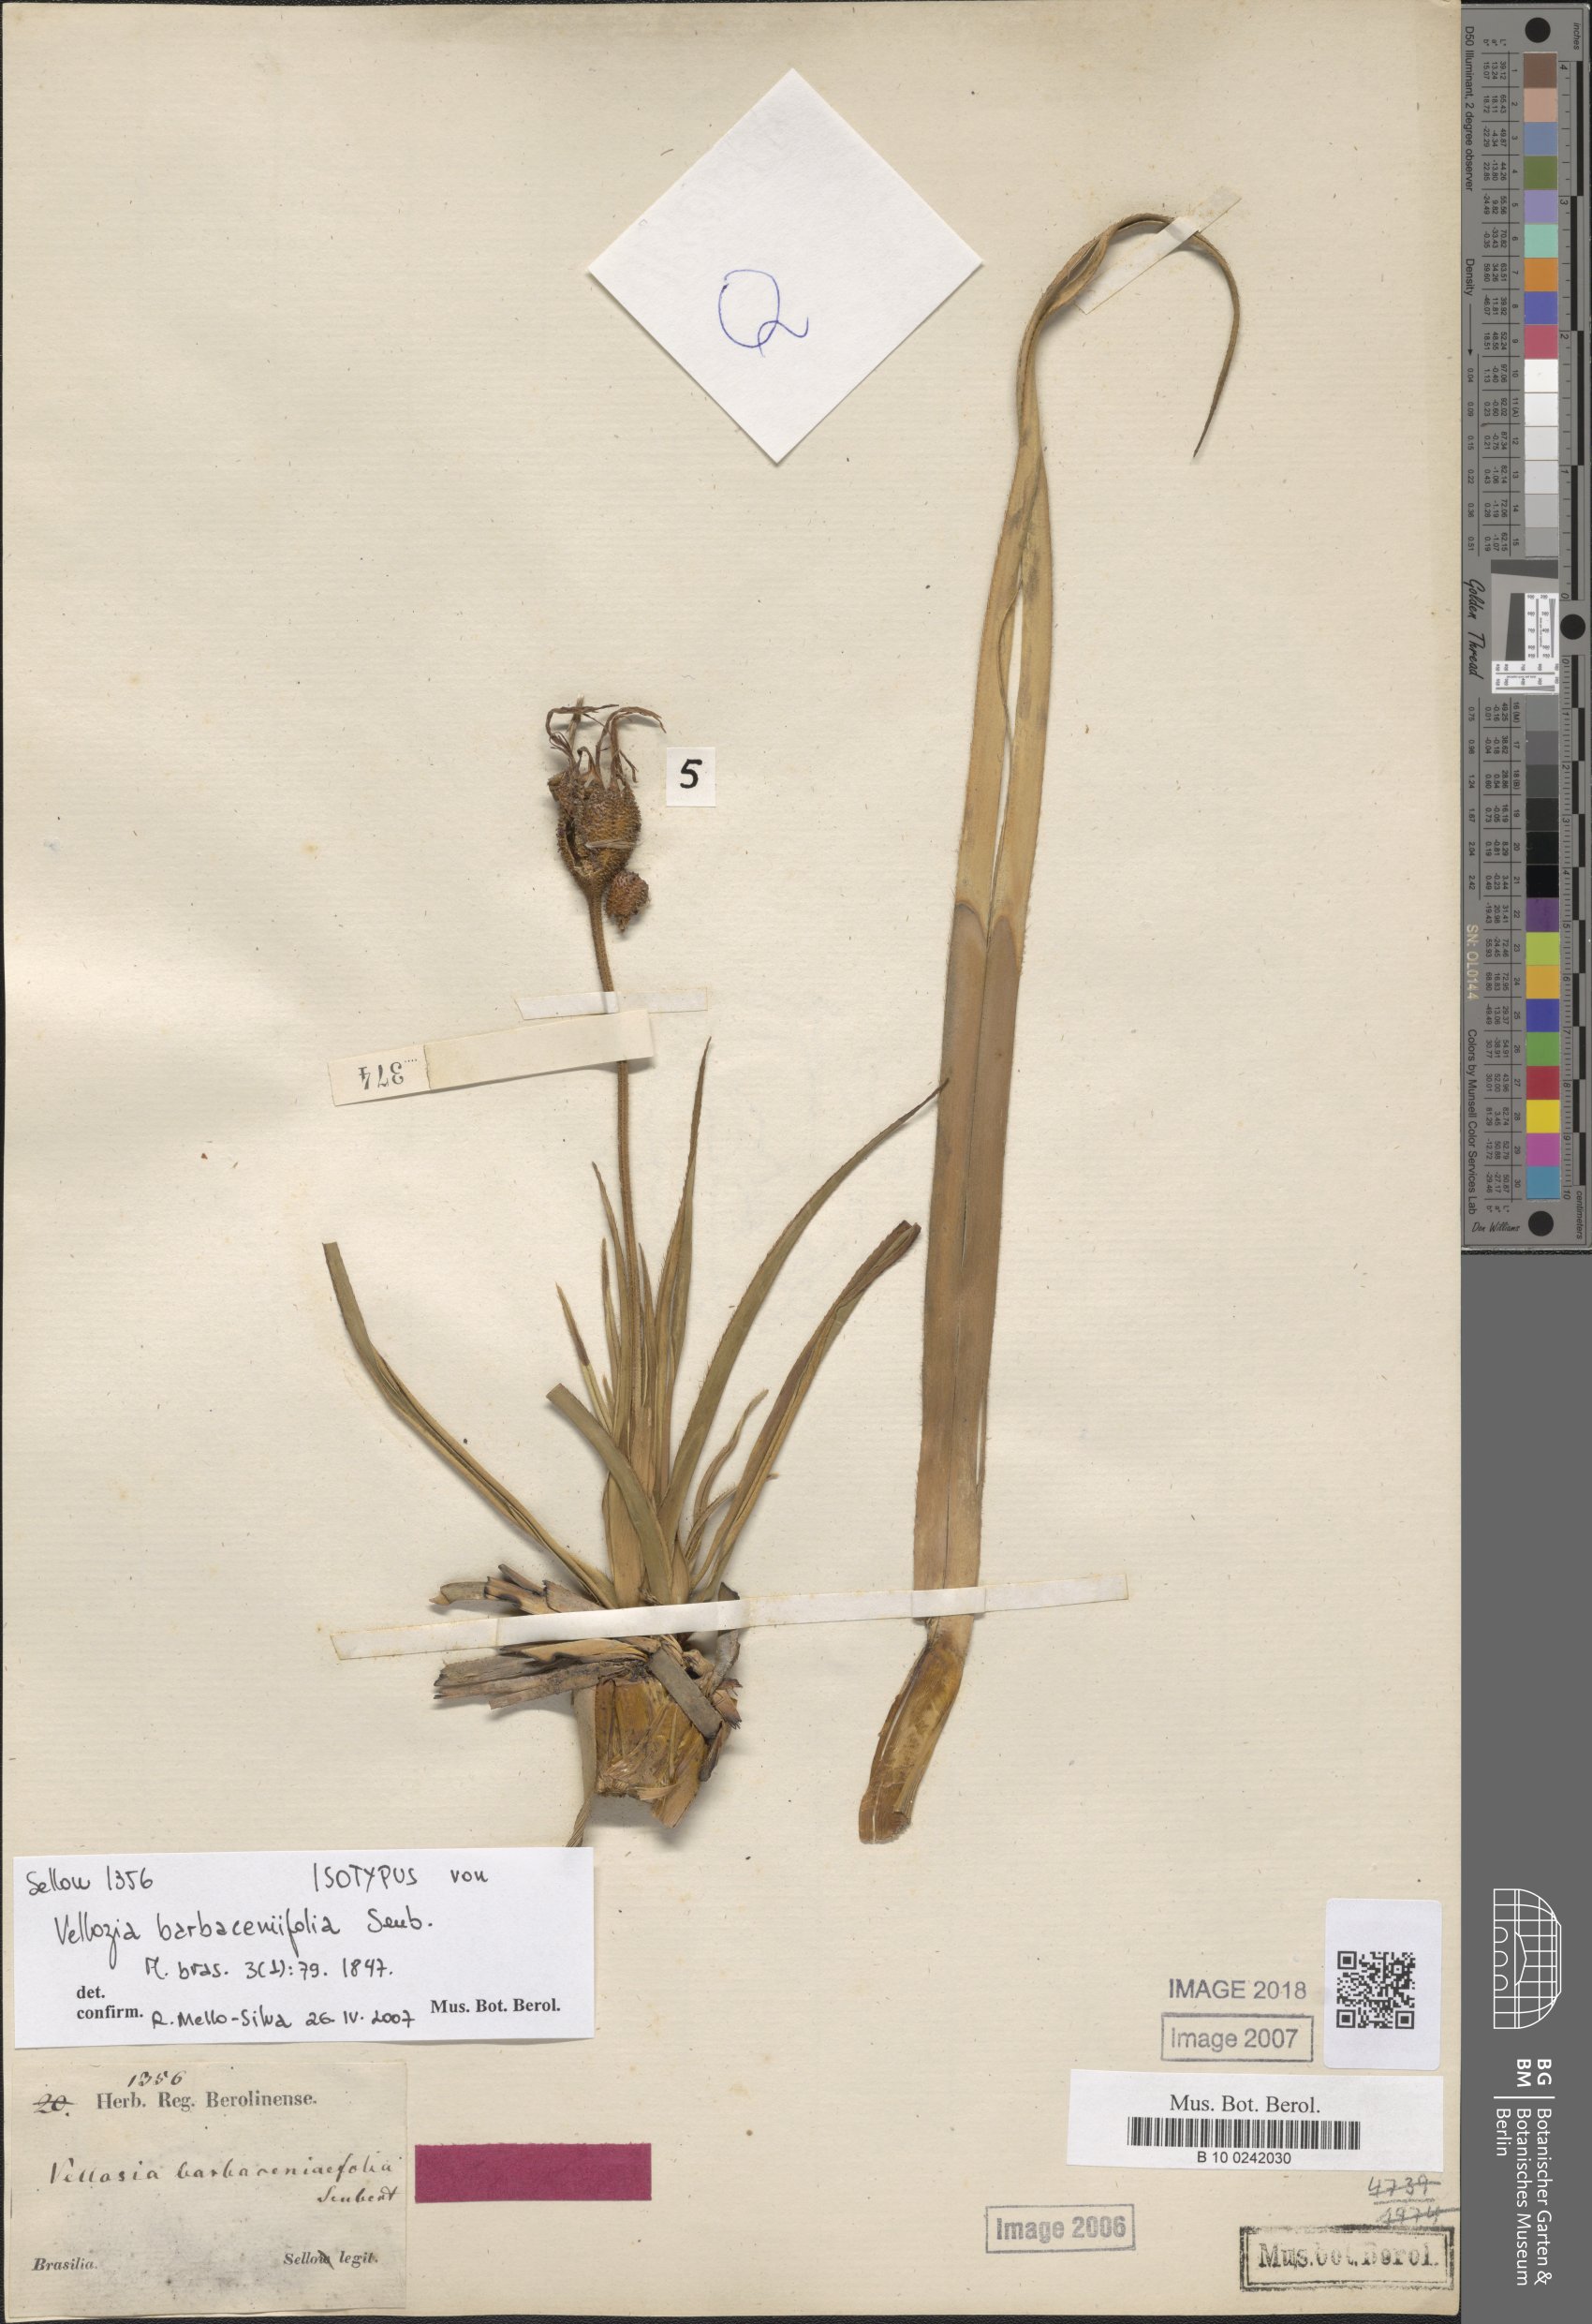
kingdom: Plantae
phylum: Tracheophyta
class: Liliopsida
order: Pandanales
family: Velloziaceae
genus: Vellozia
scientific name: Vellozia barbaceniifolia
